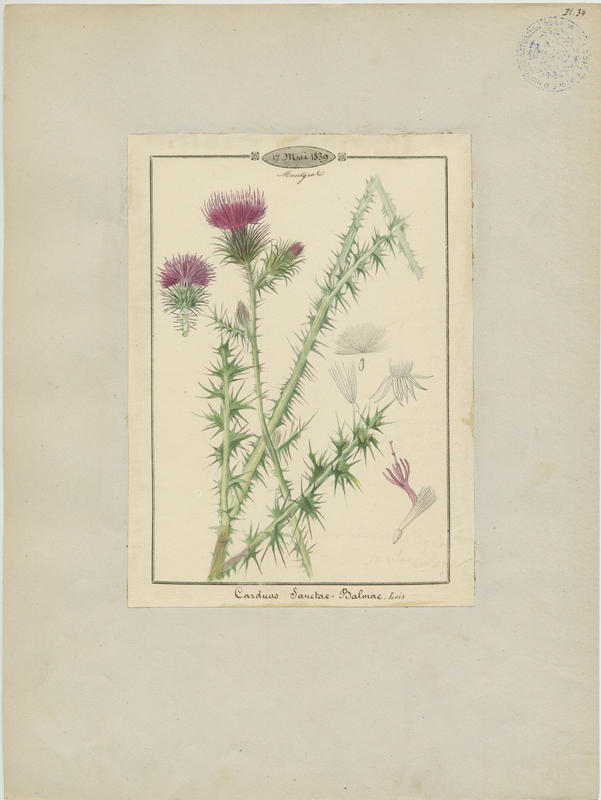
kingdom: Plantae
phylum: Tracheophyta
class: Magnoliopsida
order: Asterales
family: Asteraceae
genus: Carduus
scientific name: Carduus litigiosus
